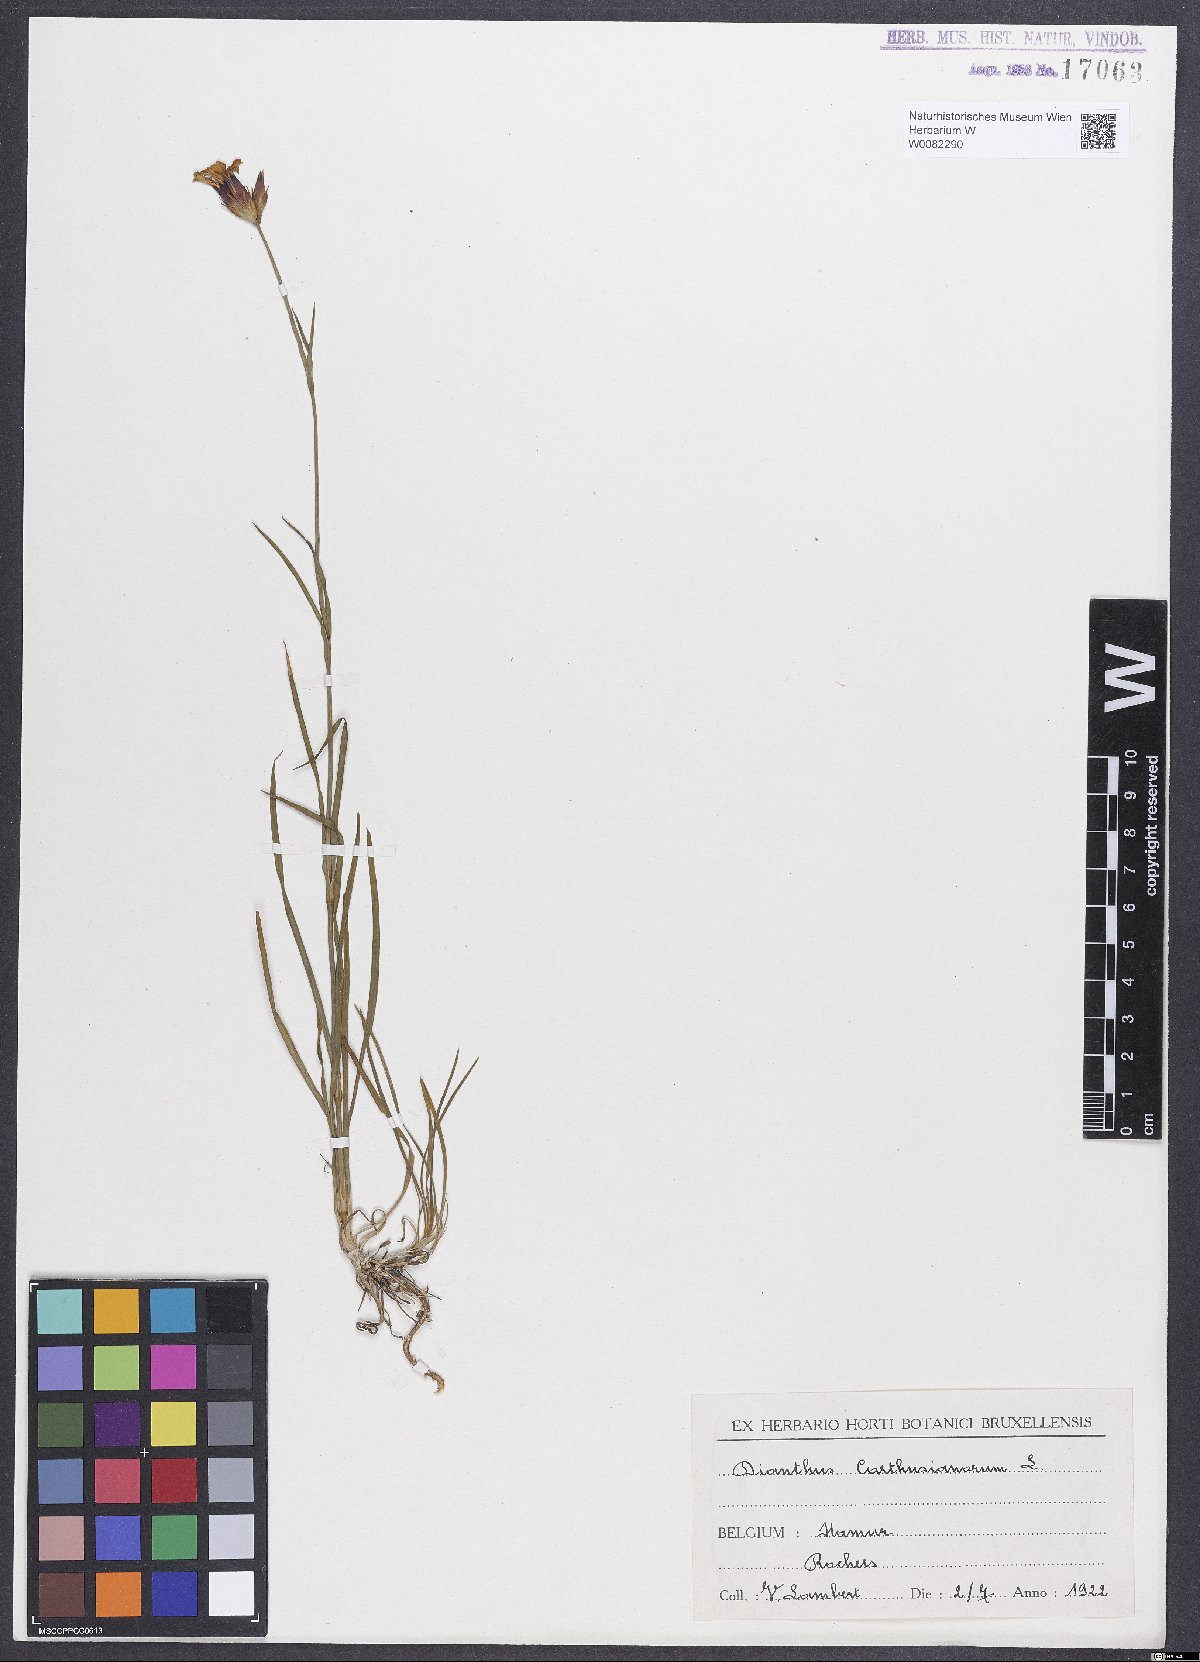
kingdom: Plantae
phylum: Tracheophyta
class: Magnoliopsida
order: Caryophyllales
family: Caryophyllaceae
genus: Dianthus
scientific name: Dianthus carthusianorum
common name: Carthusian pink
